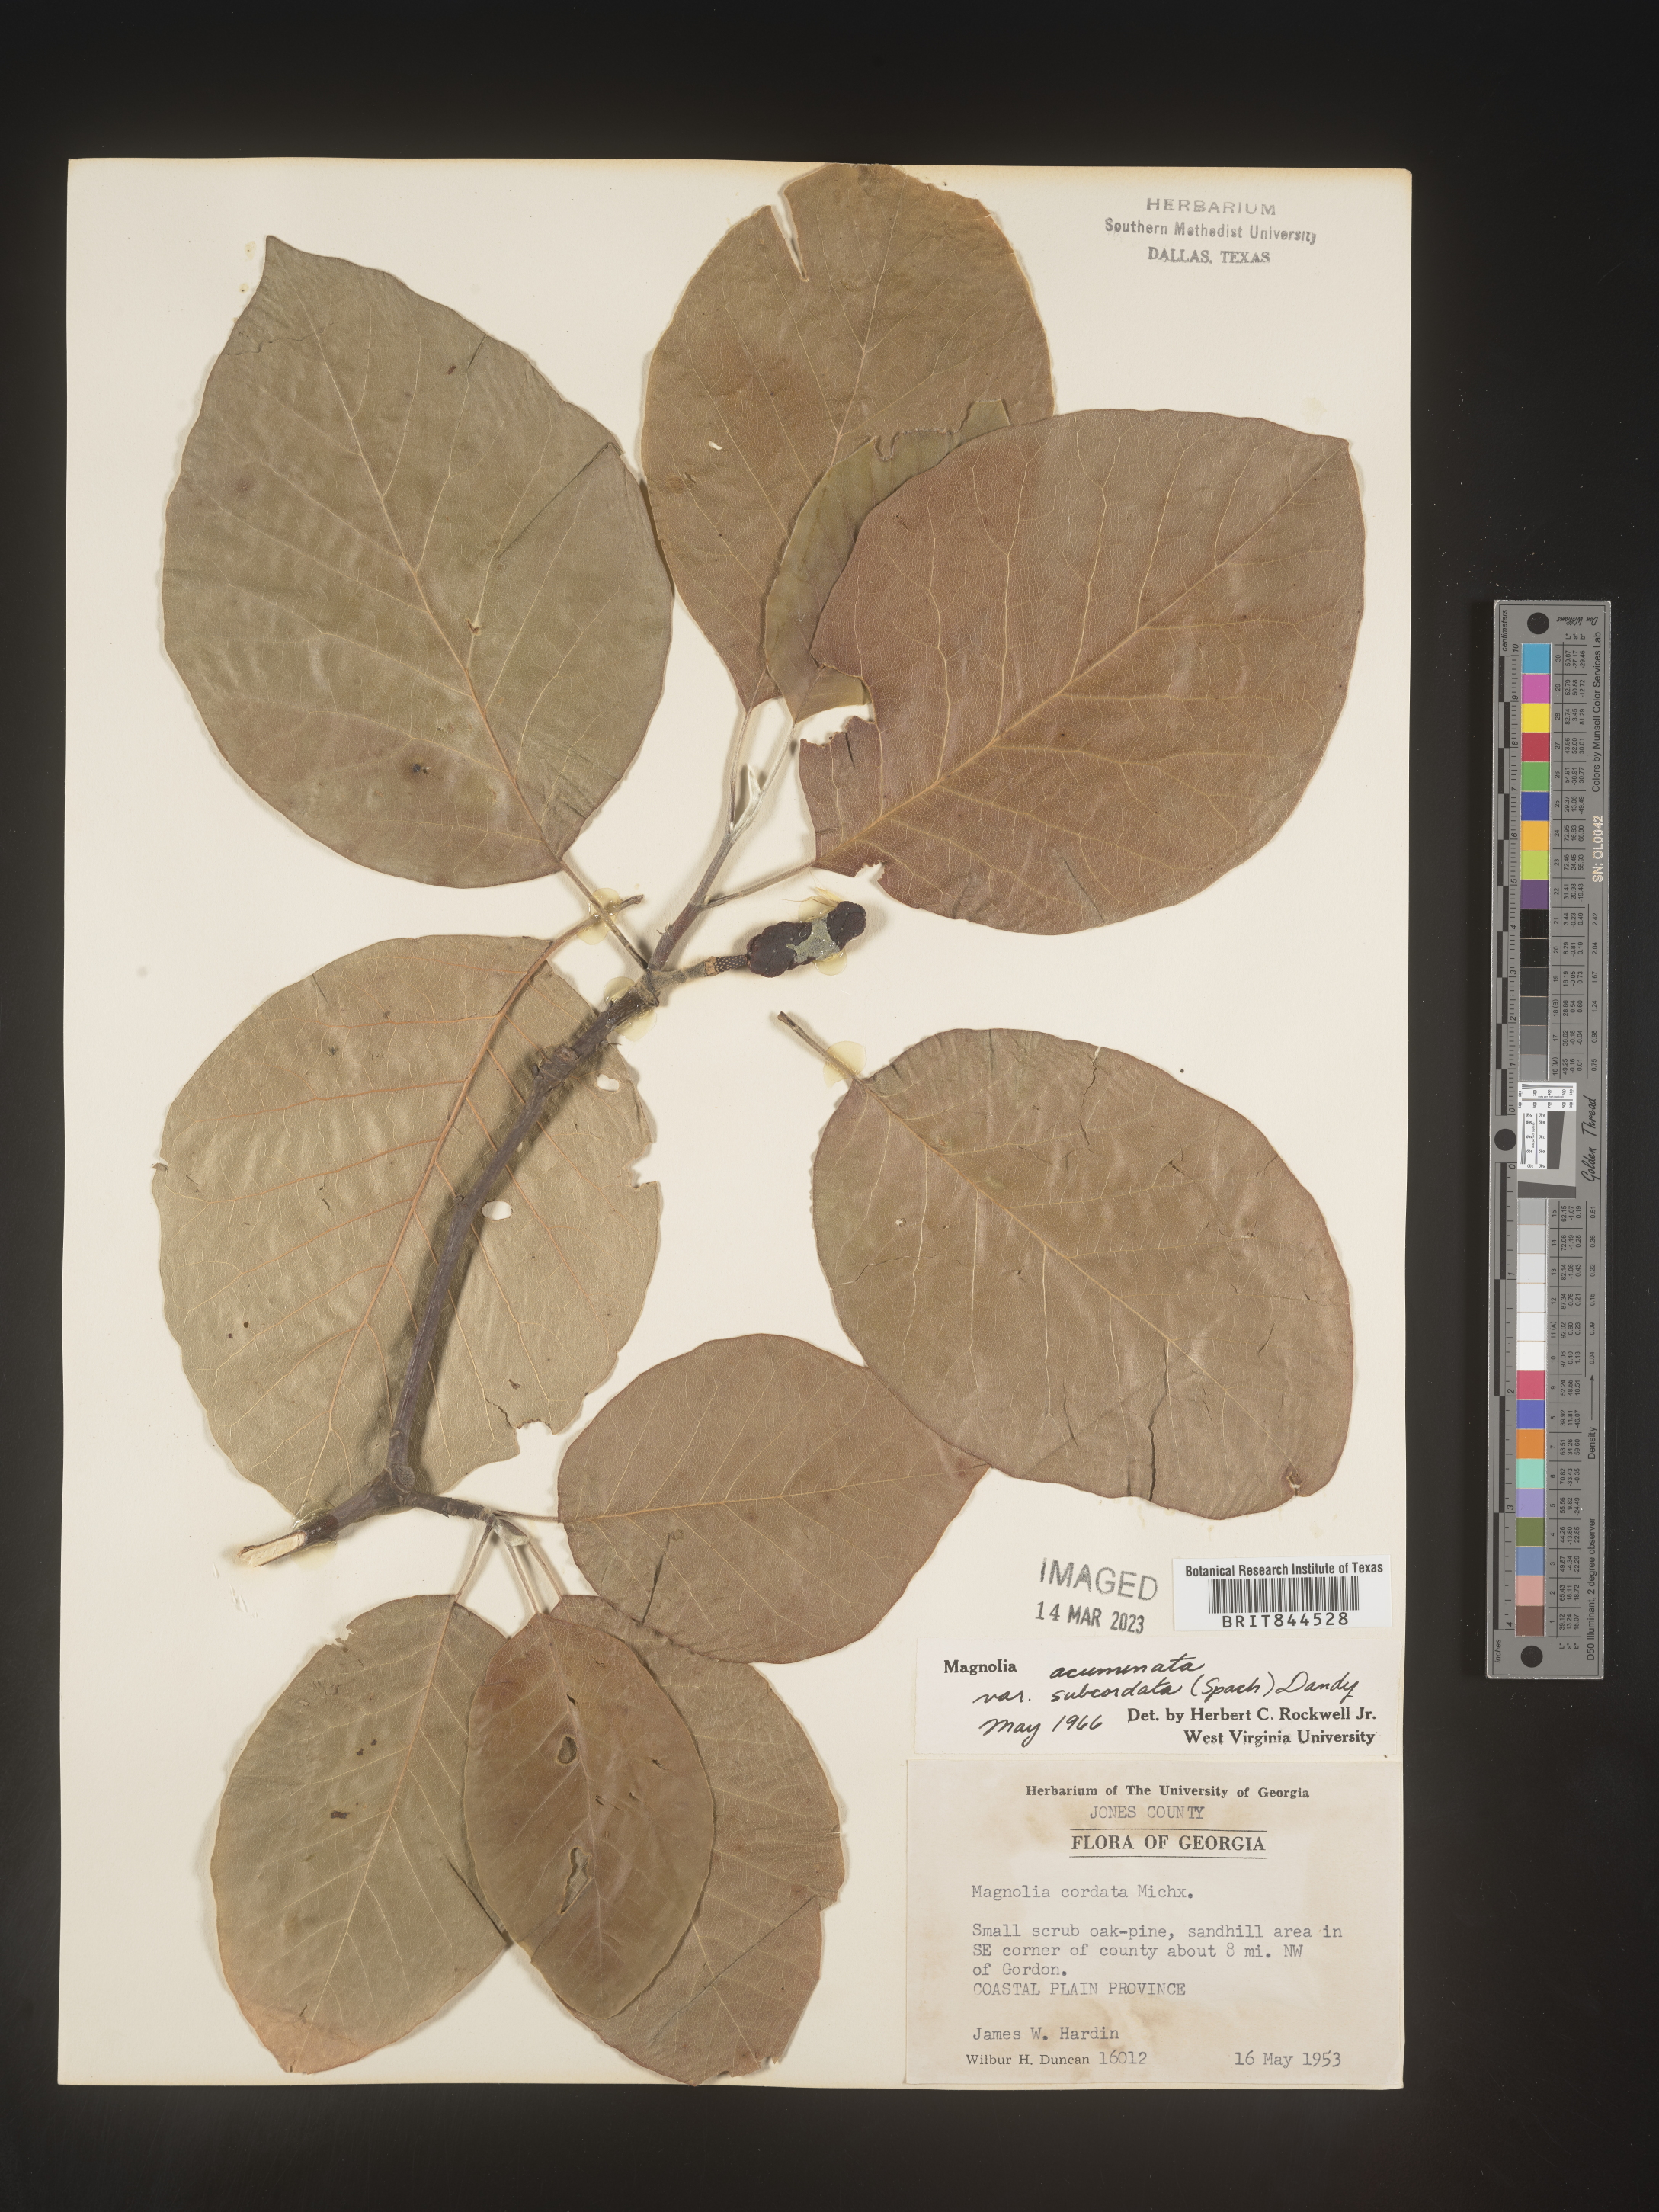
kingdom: Plantae
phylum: Tracheophyta
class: Magnoliopsida
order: Magnoliales
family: Magnoliaceae
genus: Magnolia
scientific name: Magnolia acuminata
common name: Cucumber magnolia
